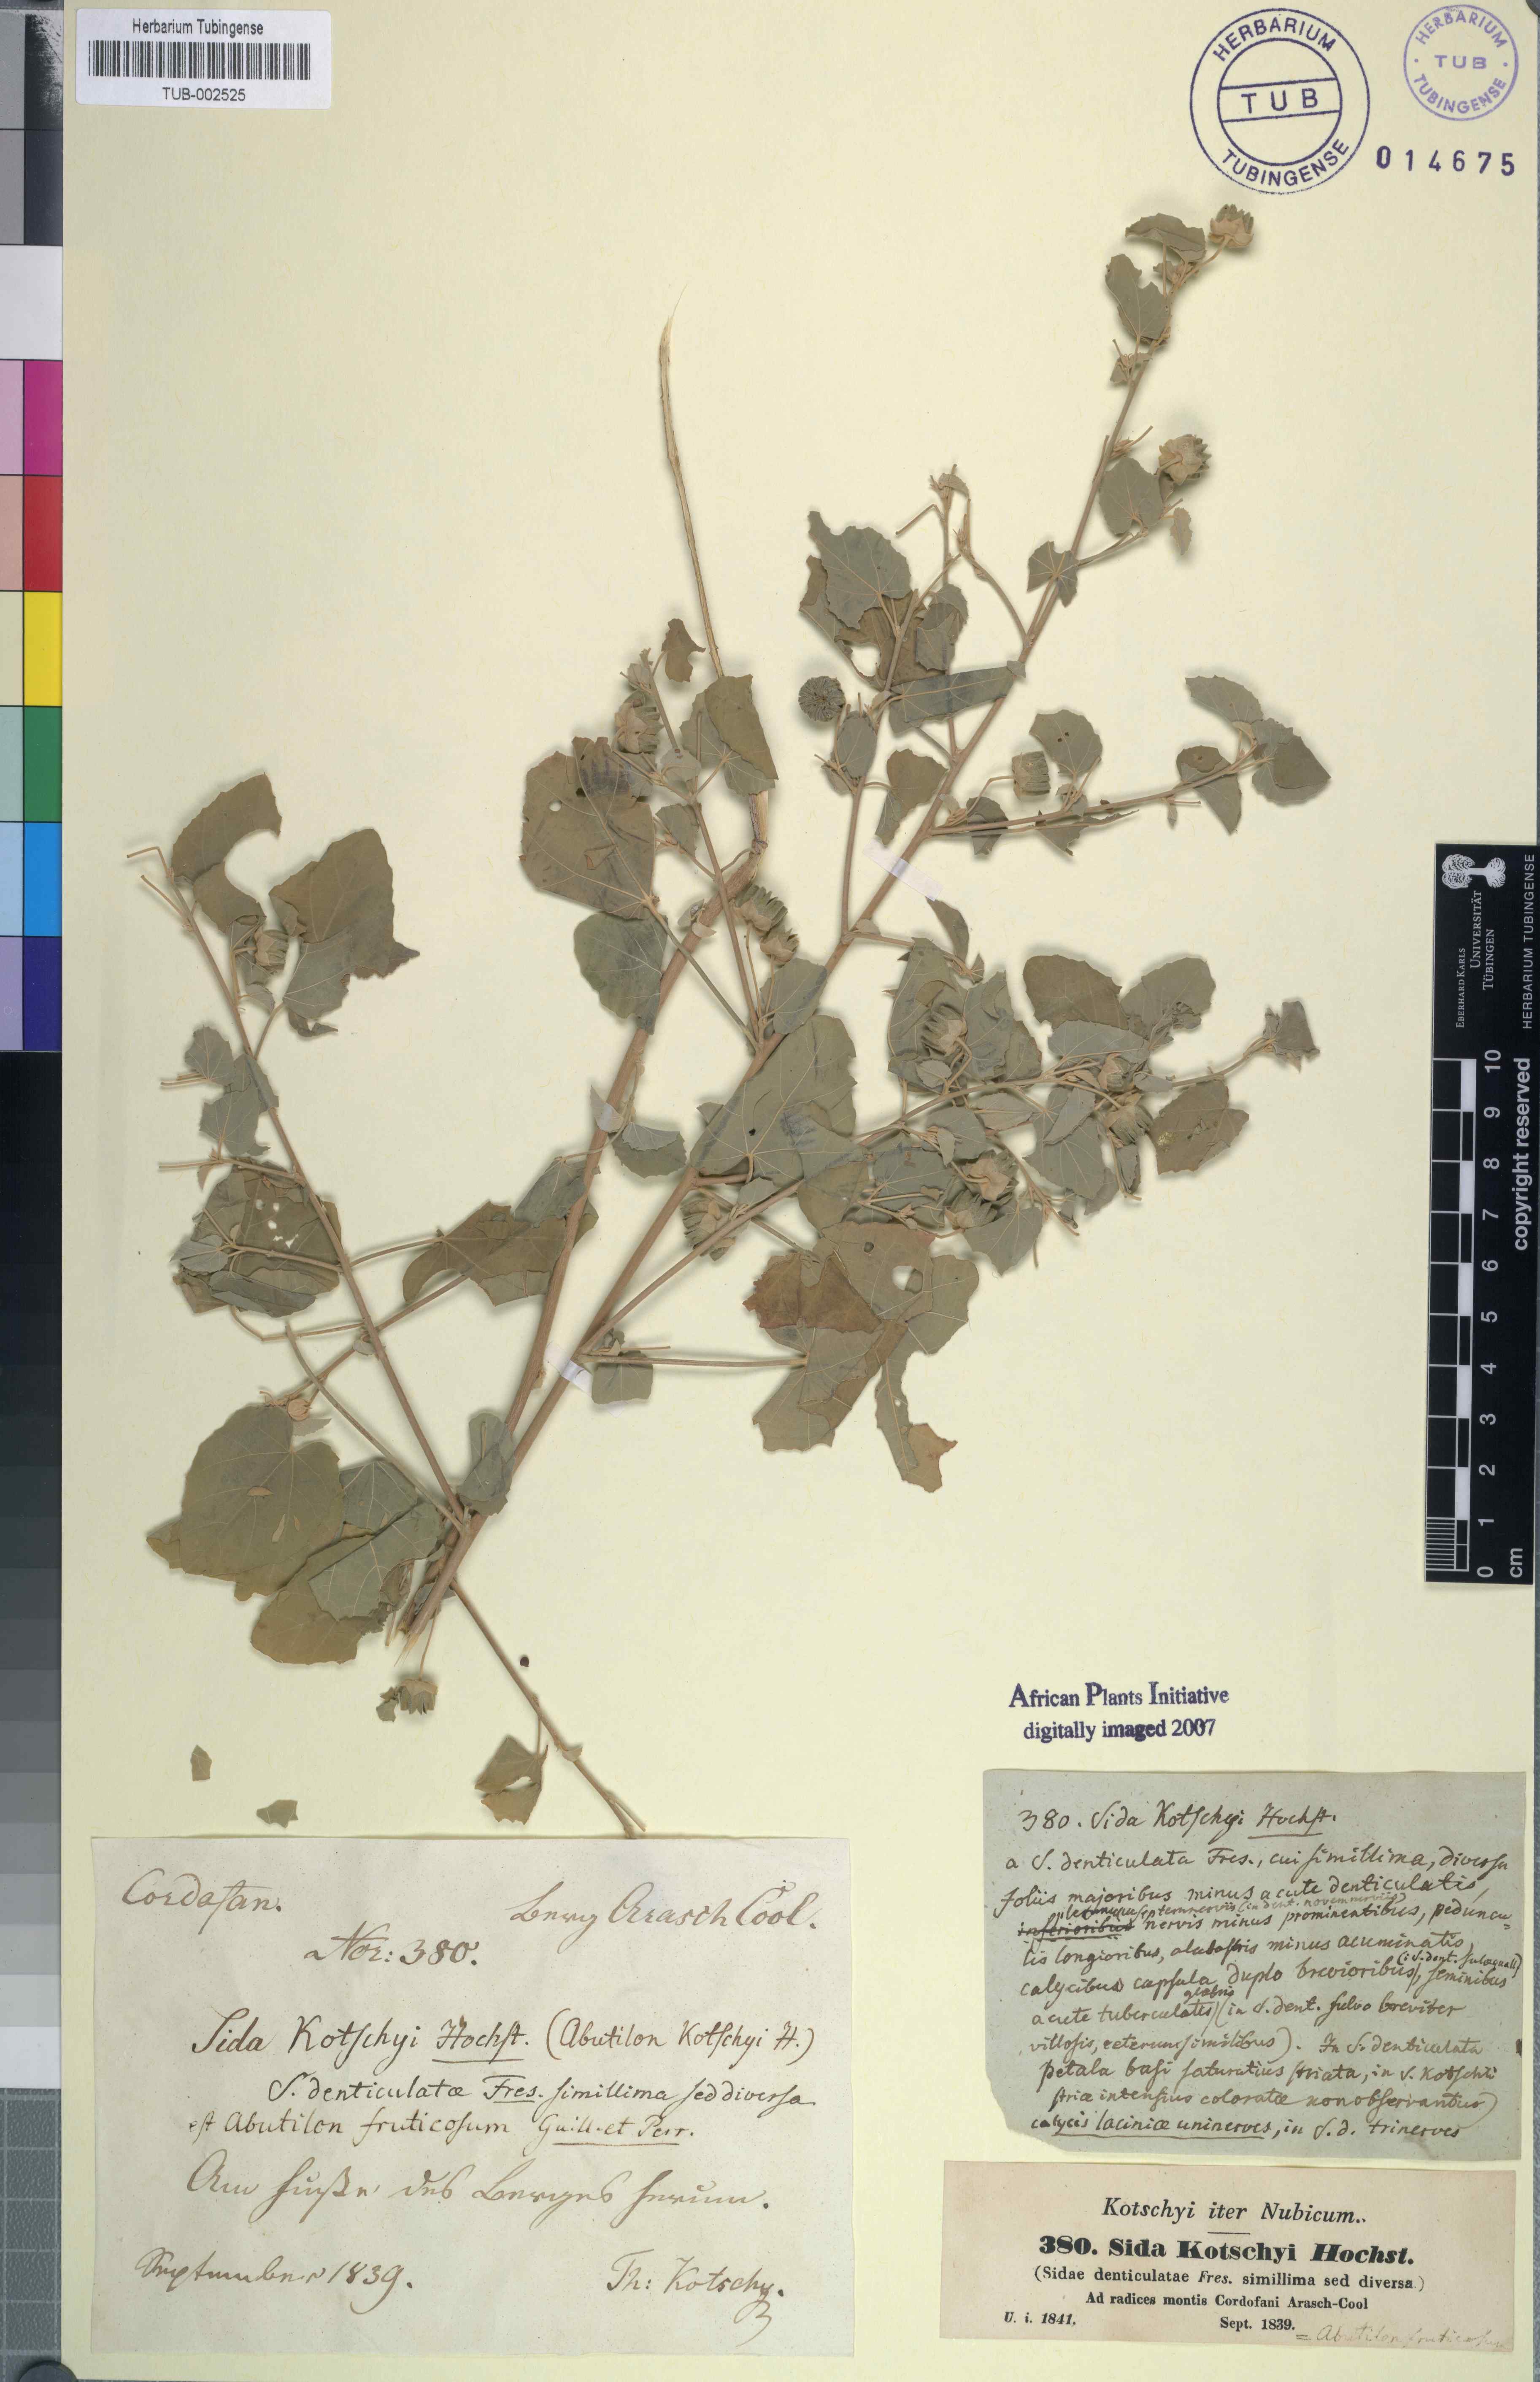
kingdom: Plantae
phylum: Tracheophyta
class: Magnoliopsida
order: Malvales
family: Malvaceae
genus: Abutilon
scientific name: Abutilon fruticosum
